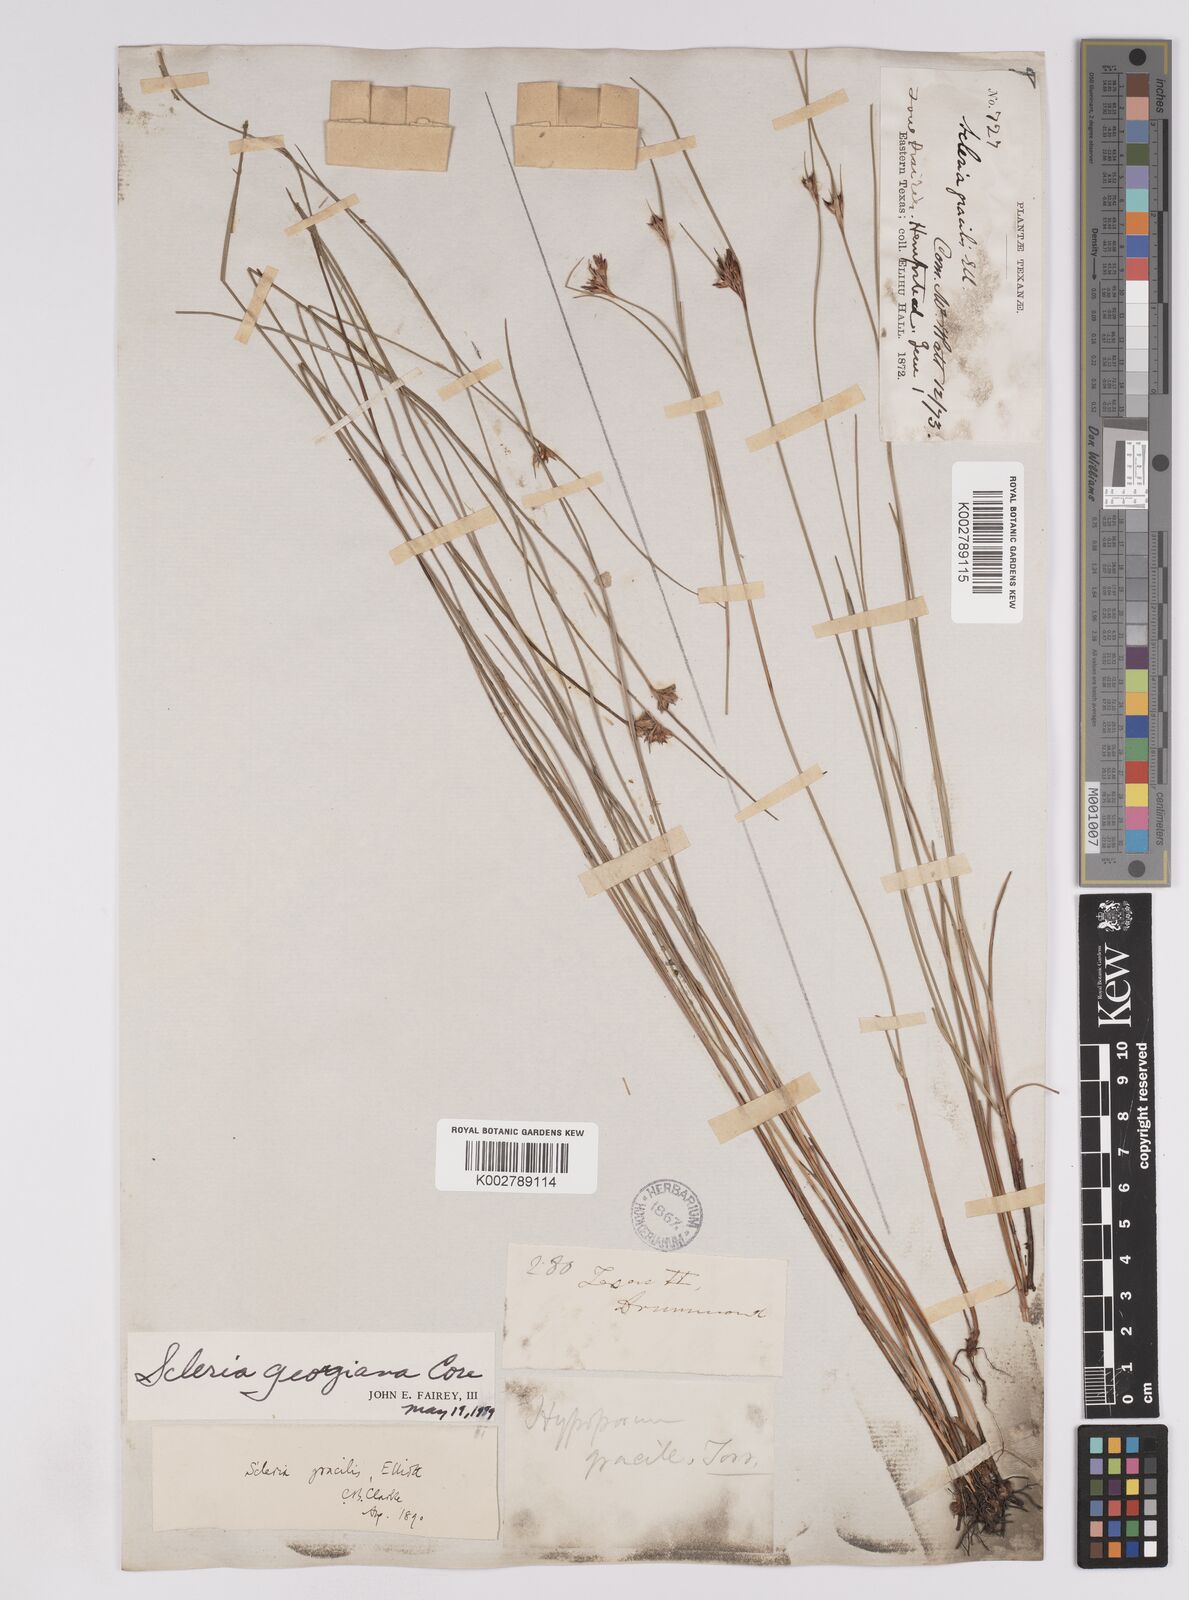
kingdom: Plantae
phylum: Tracheophyta
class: Liliopsida
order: Poales
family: Cyperaceae
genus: Scleria
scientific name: Scleria georgiana
